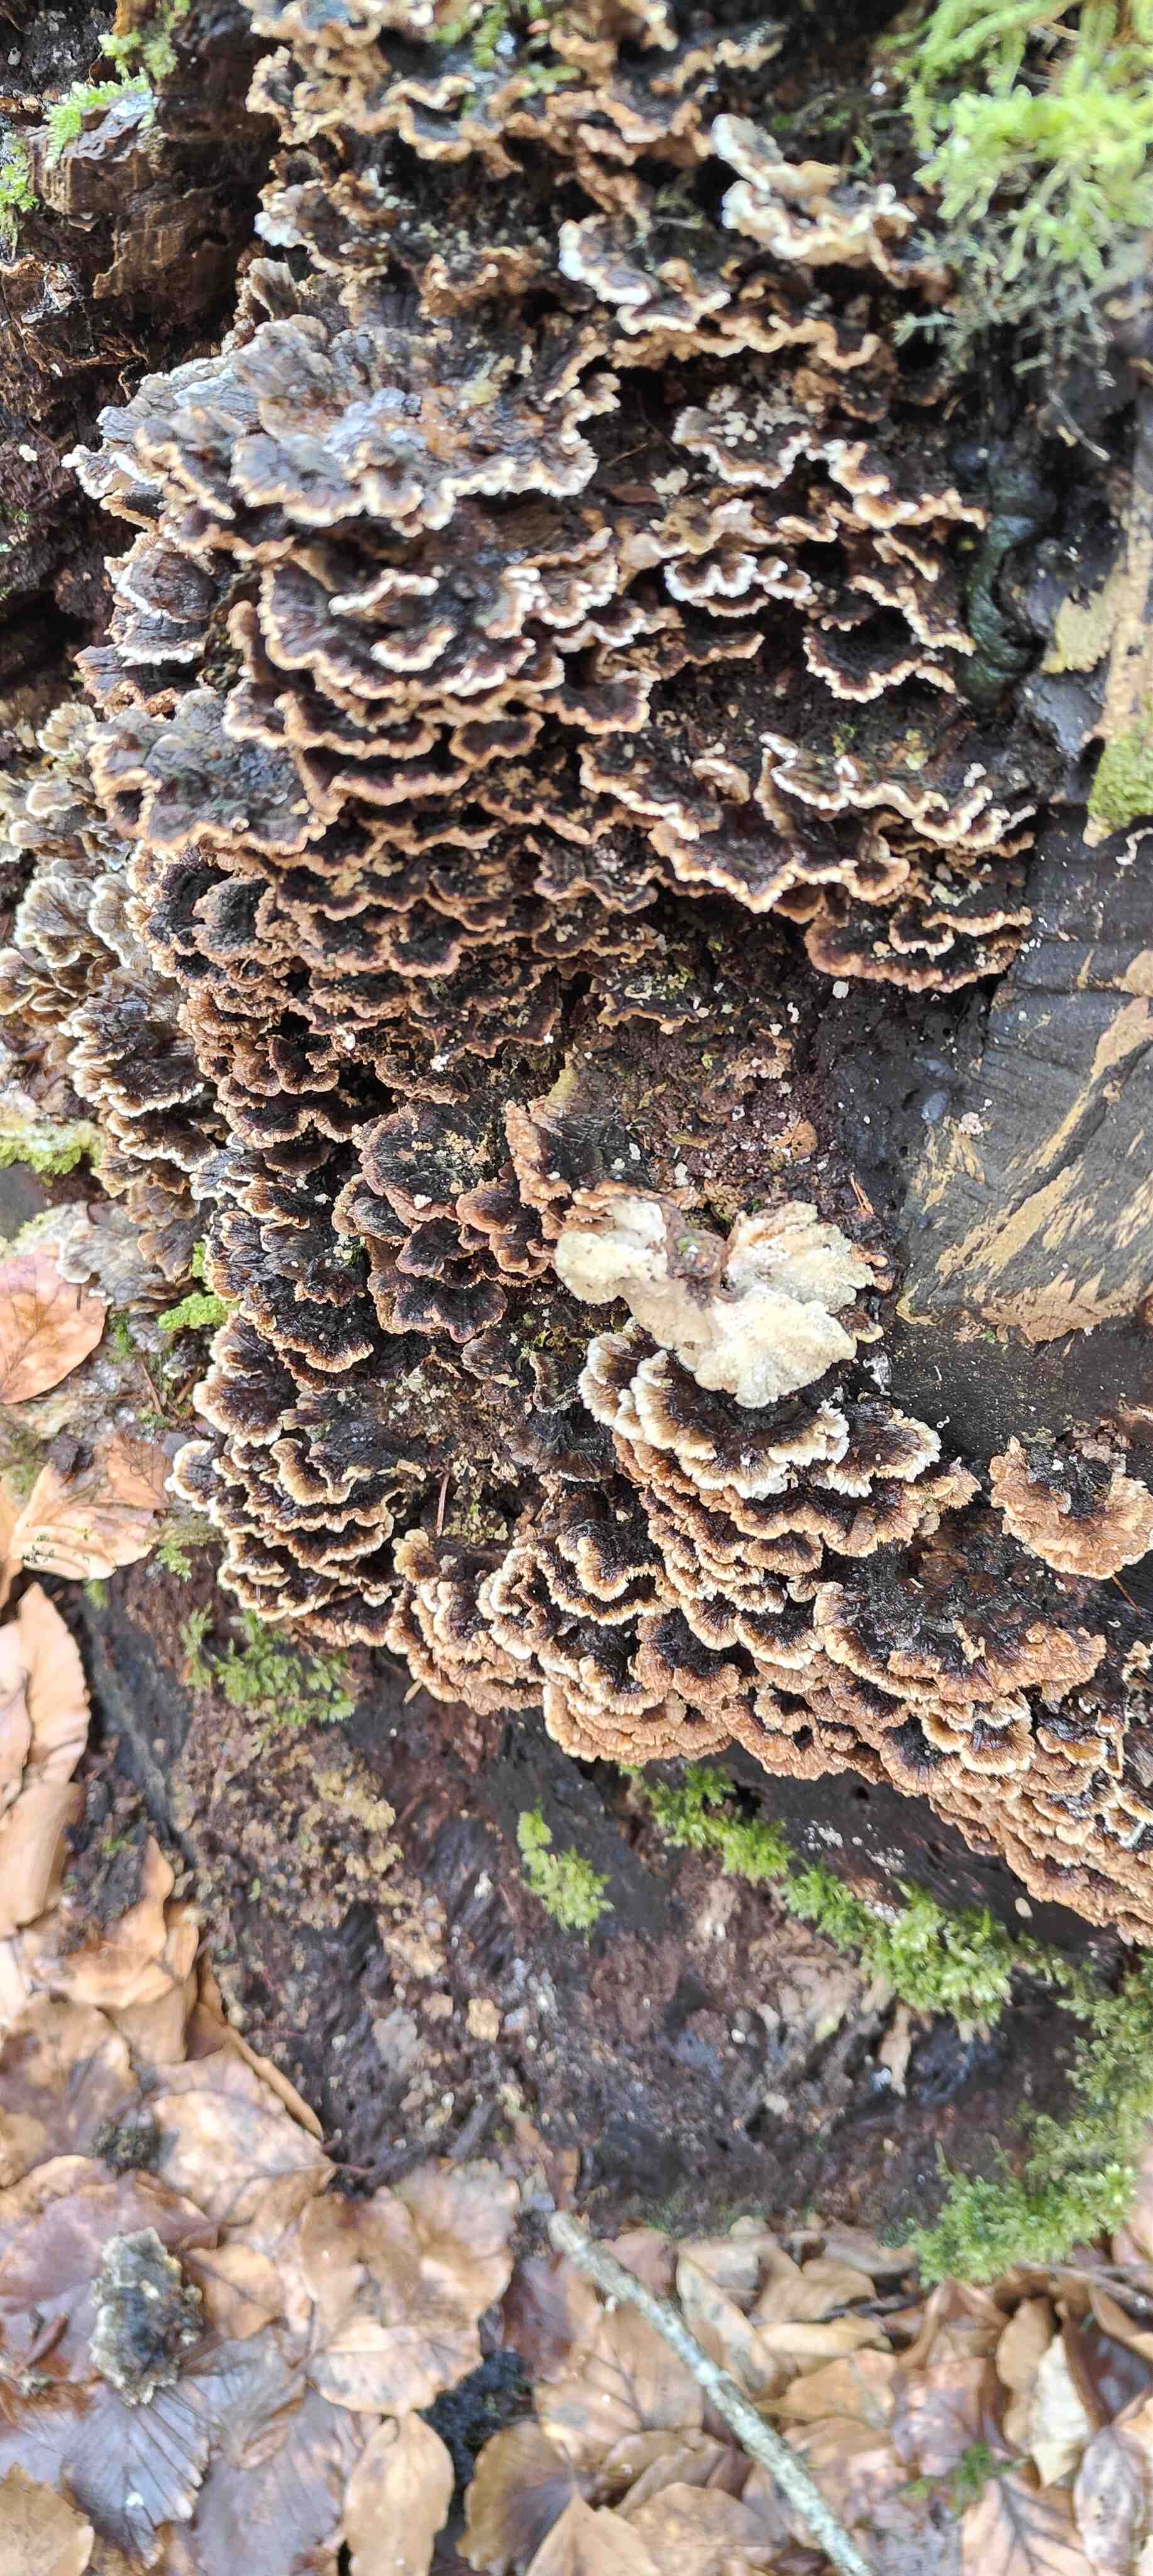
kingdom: Fungi
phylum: Basidiomycota
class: Agaricomycetes
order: Polyporales
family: Polyporaceae
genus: Trametes
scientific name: Trametes versicolor
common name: broget læderporesvamp
